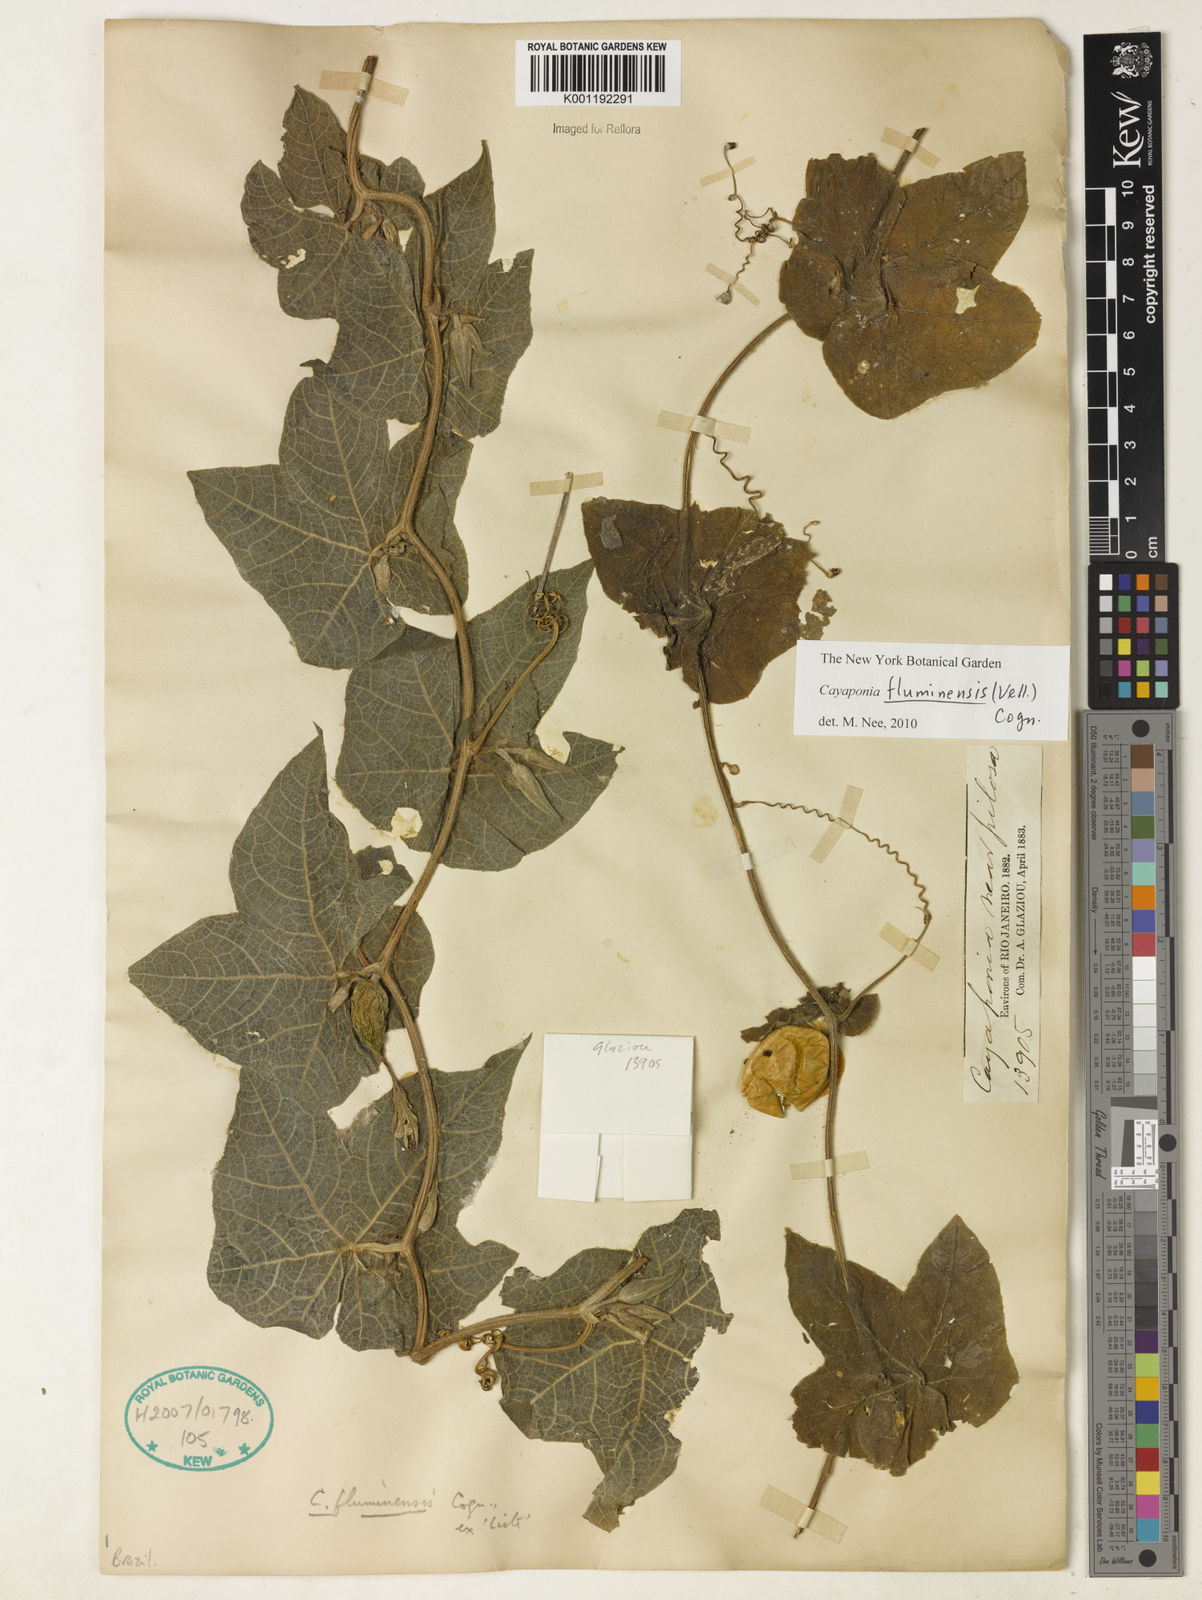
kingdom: Plantae
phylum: Tracheophyta
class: Magnoliopsida
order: Cucurbitales
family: Cucurbitaceae
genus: Cayaponia
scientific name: Cayaponia fluminensis
